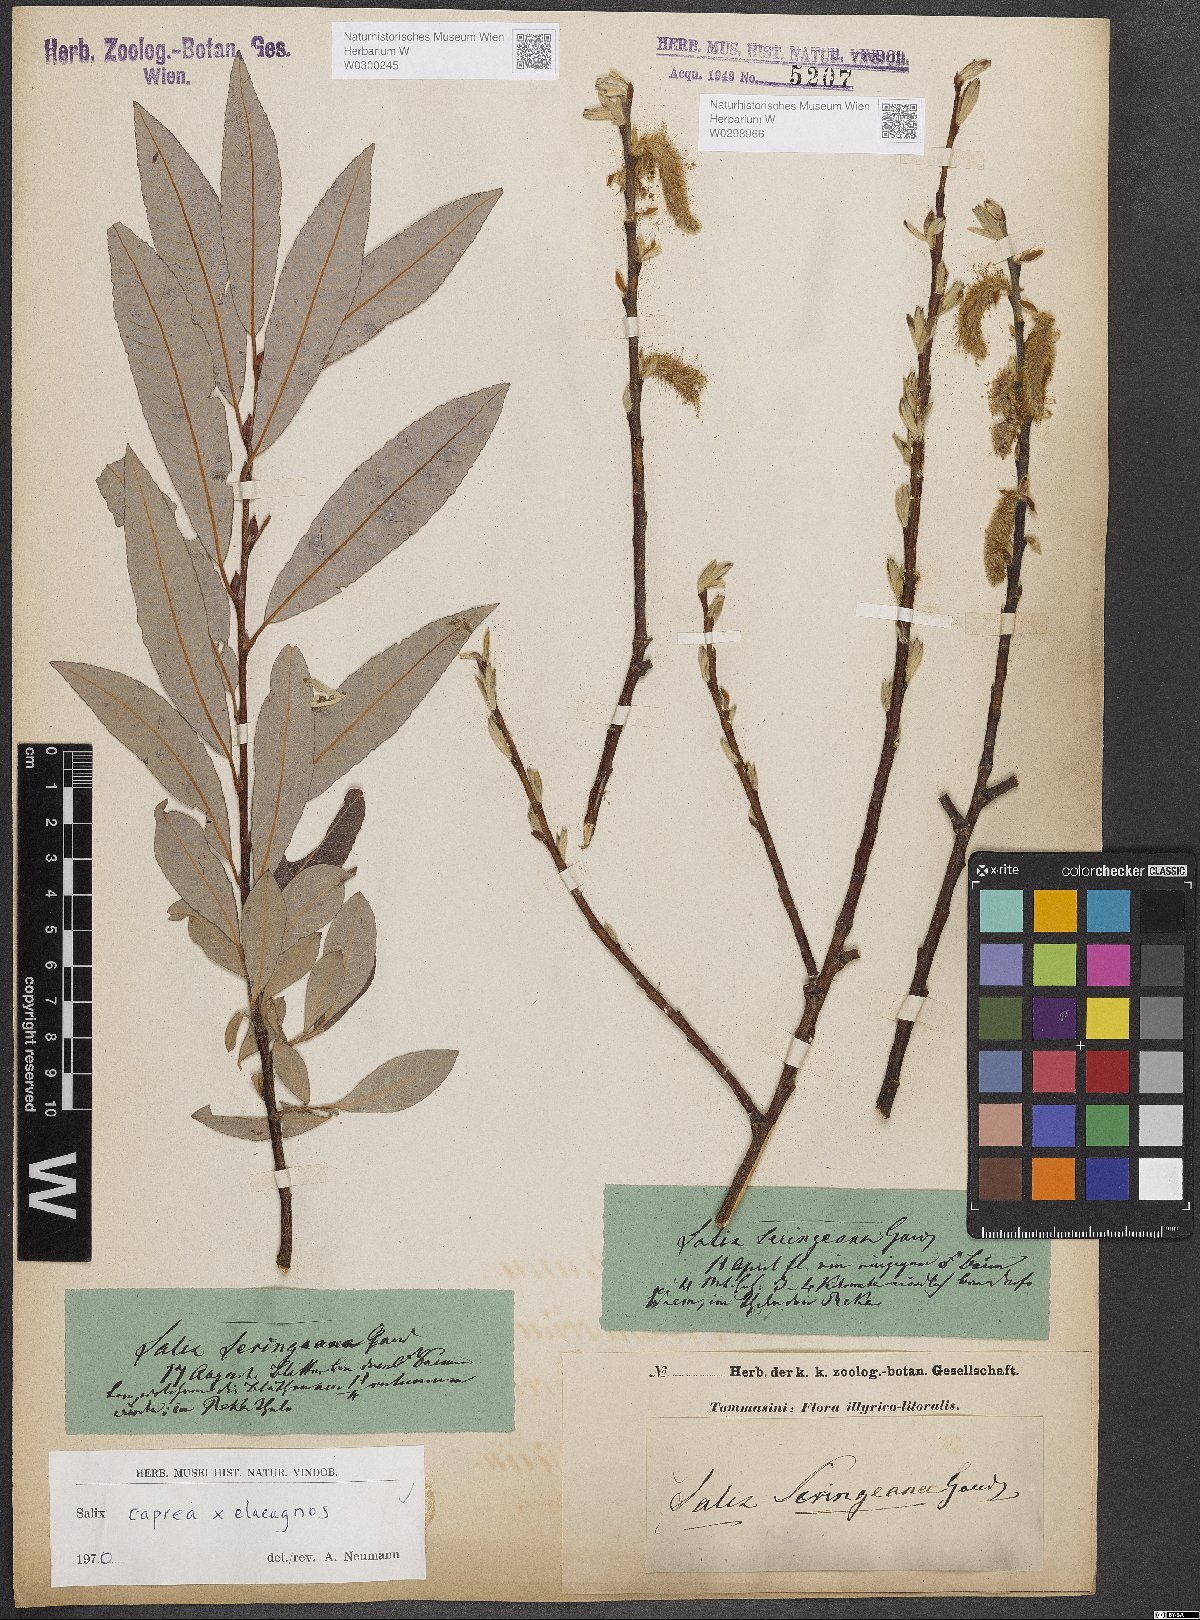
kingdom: Plantae
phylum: Tracheophyta
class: Magnoliopsida
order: Malpighiales
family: Salicaceae
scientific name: Salicaceae
